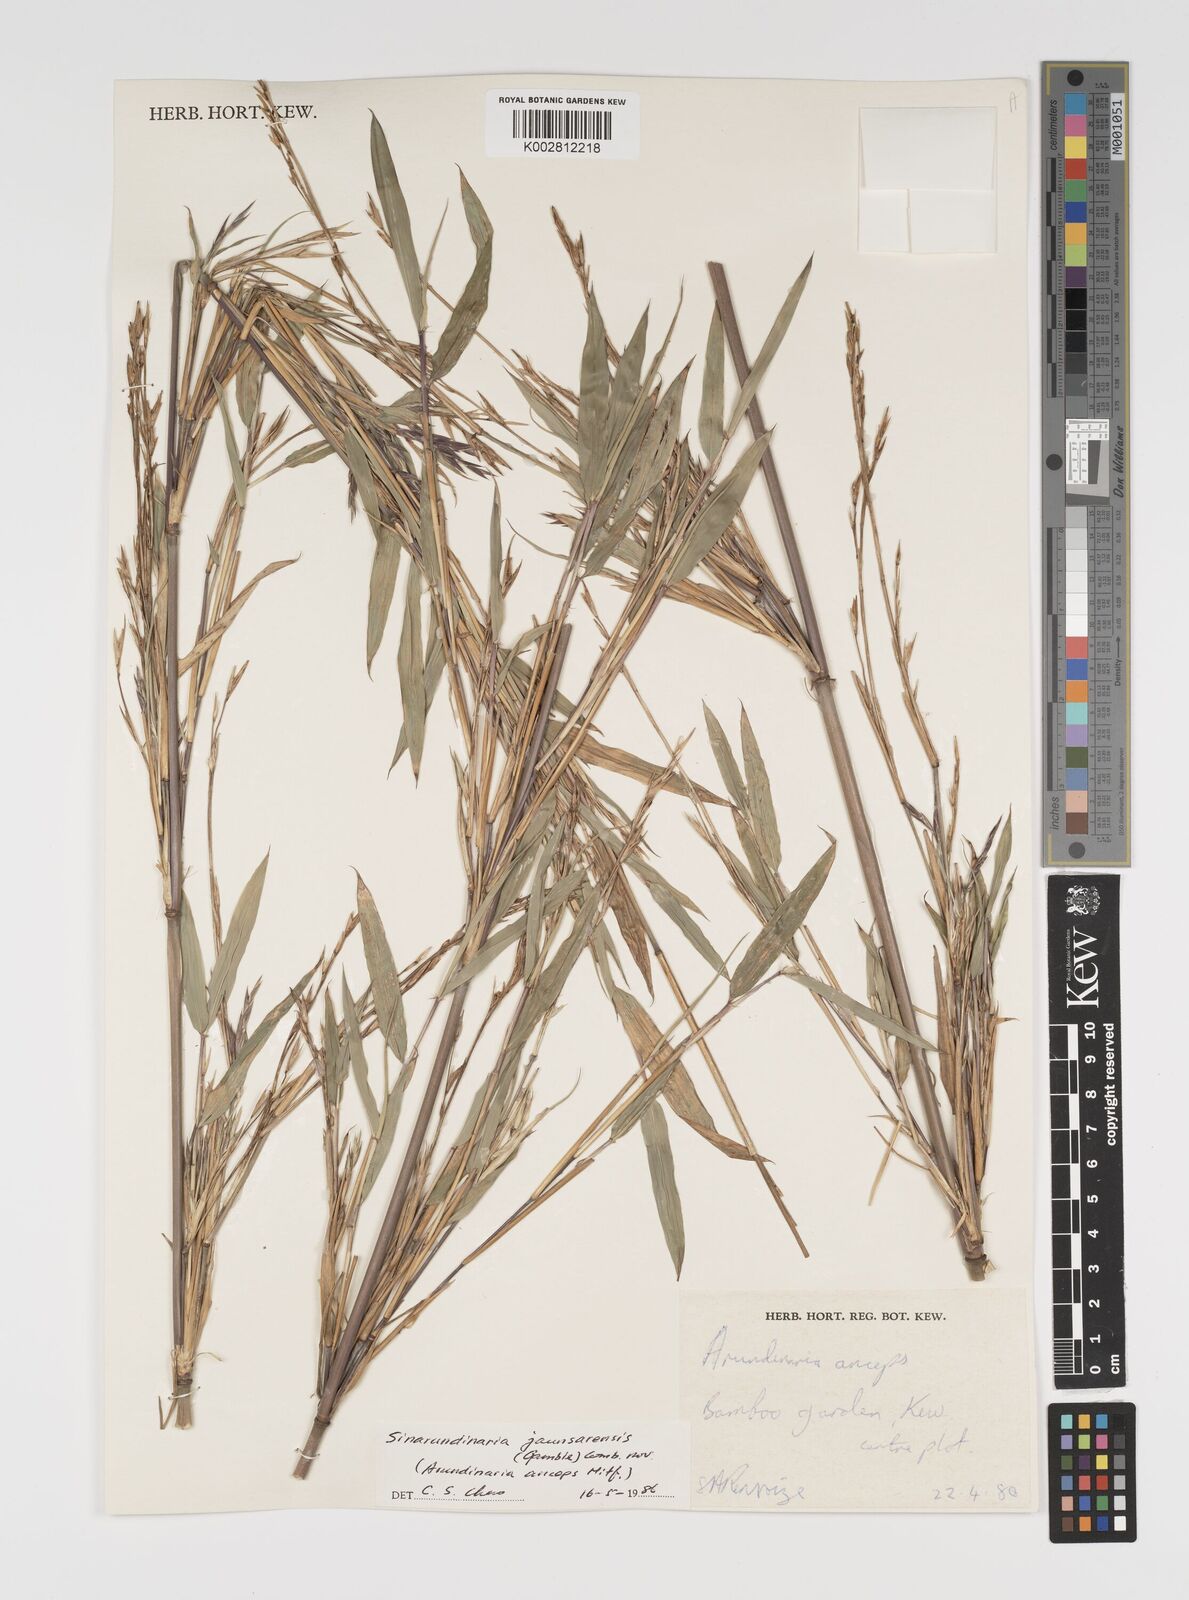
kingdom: Plantae
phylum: Tracheophyta
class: Liliopsida
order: Poales
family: Poaceae
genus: Yushania
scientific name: Yushania anceps
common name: Indian fountain-bamboo
